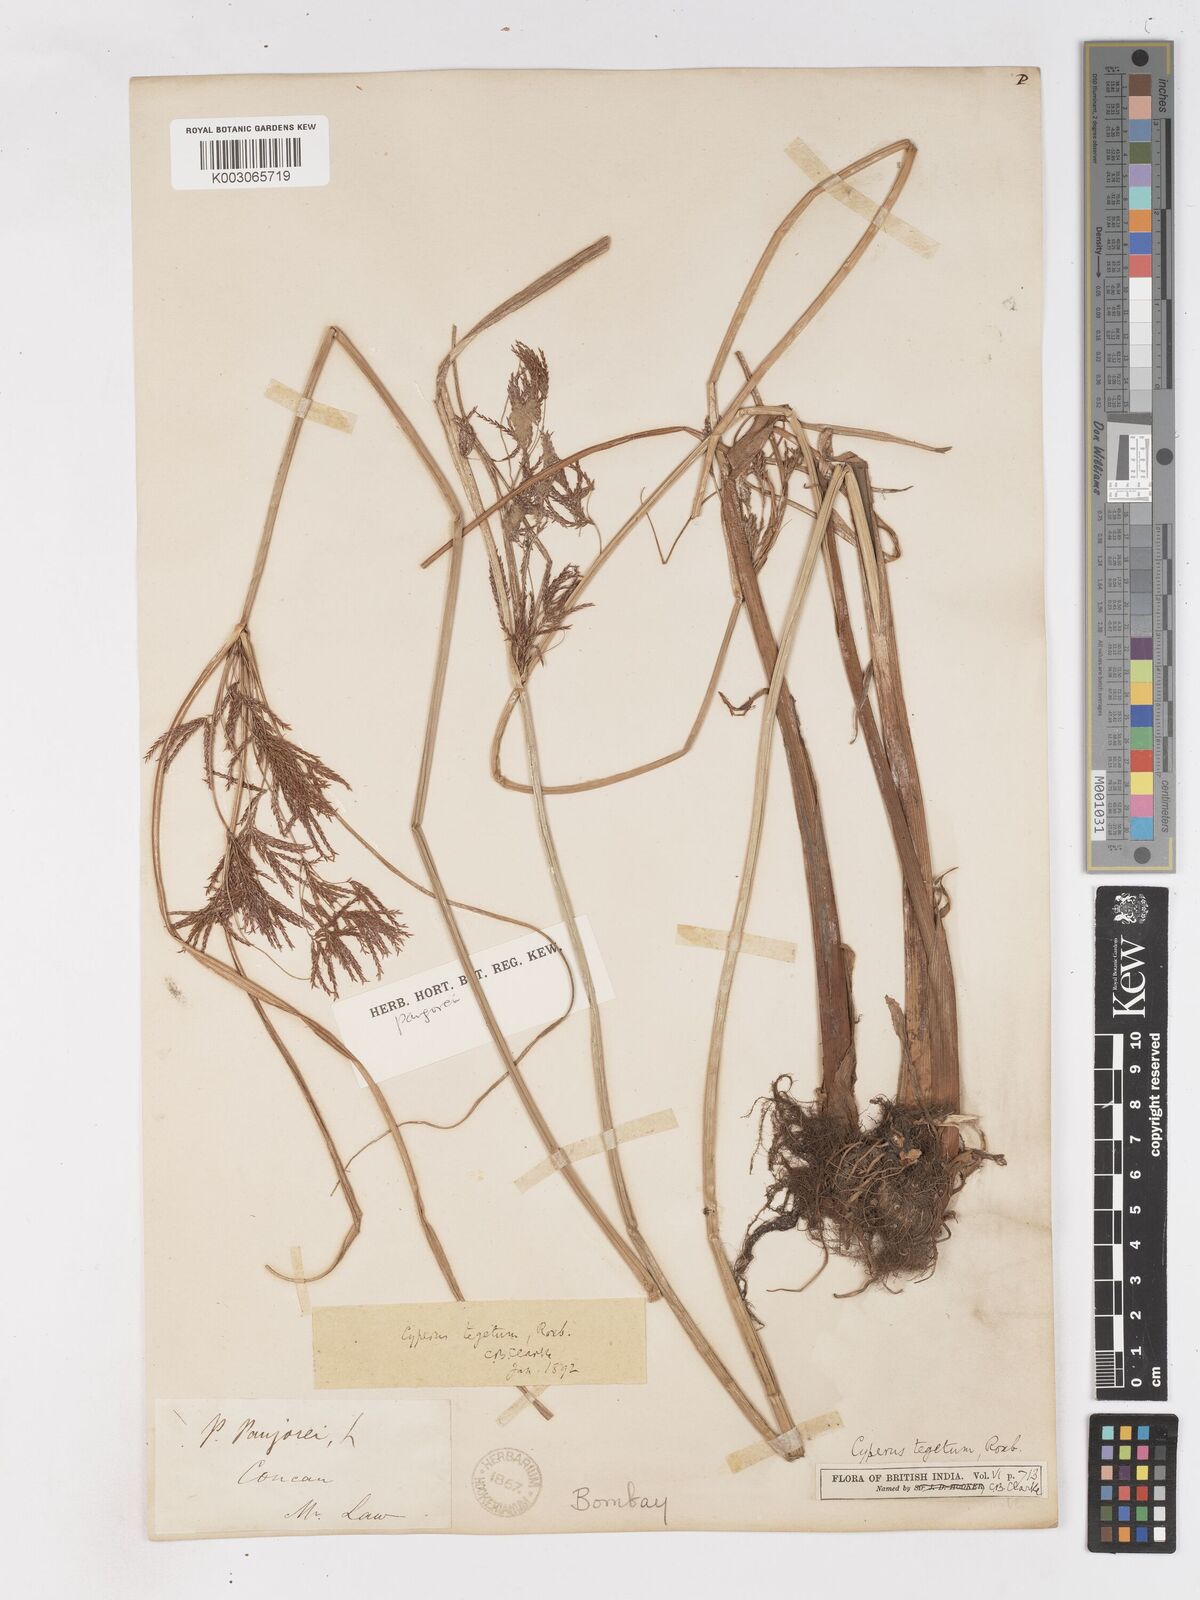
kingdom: Plantae
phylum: Tracheophyta
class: Liliopsida
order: Poales
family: Cyperaceae
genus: Cyperus
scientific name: Cyperus pangorei
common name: Mat sedge
